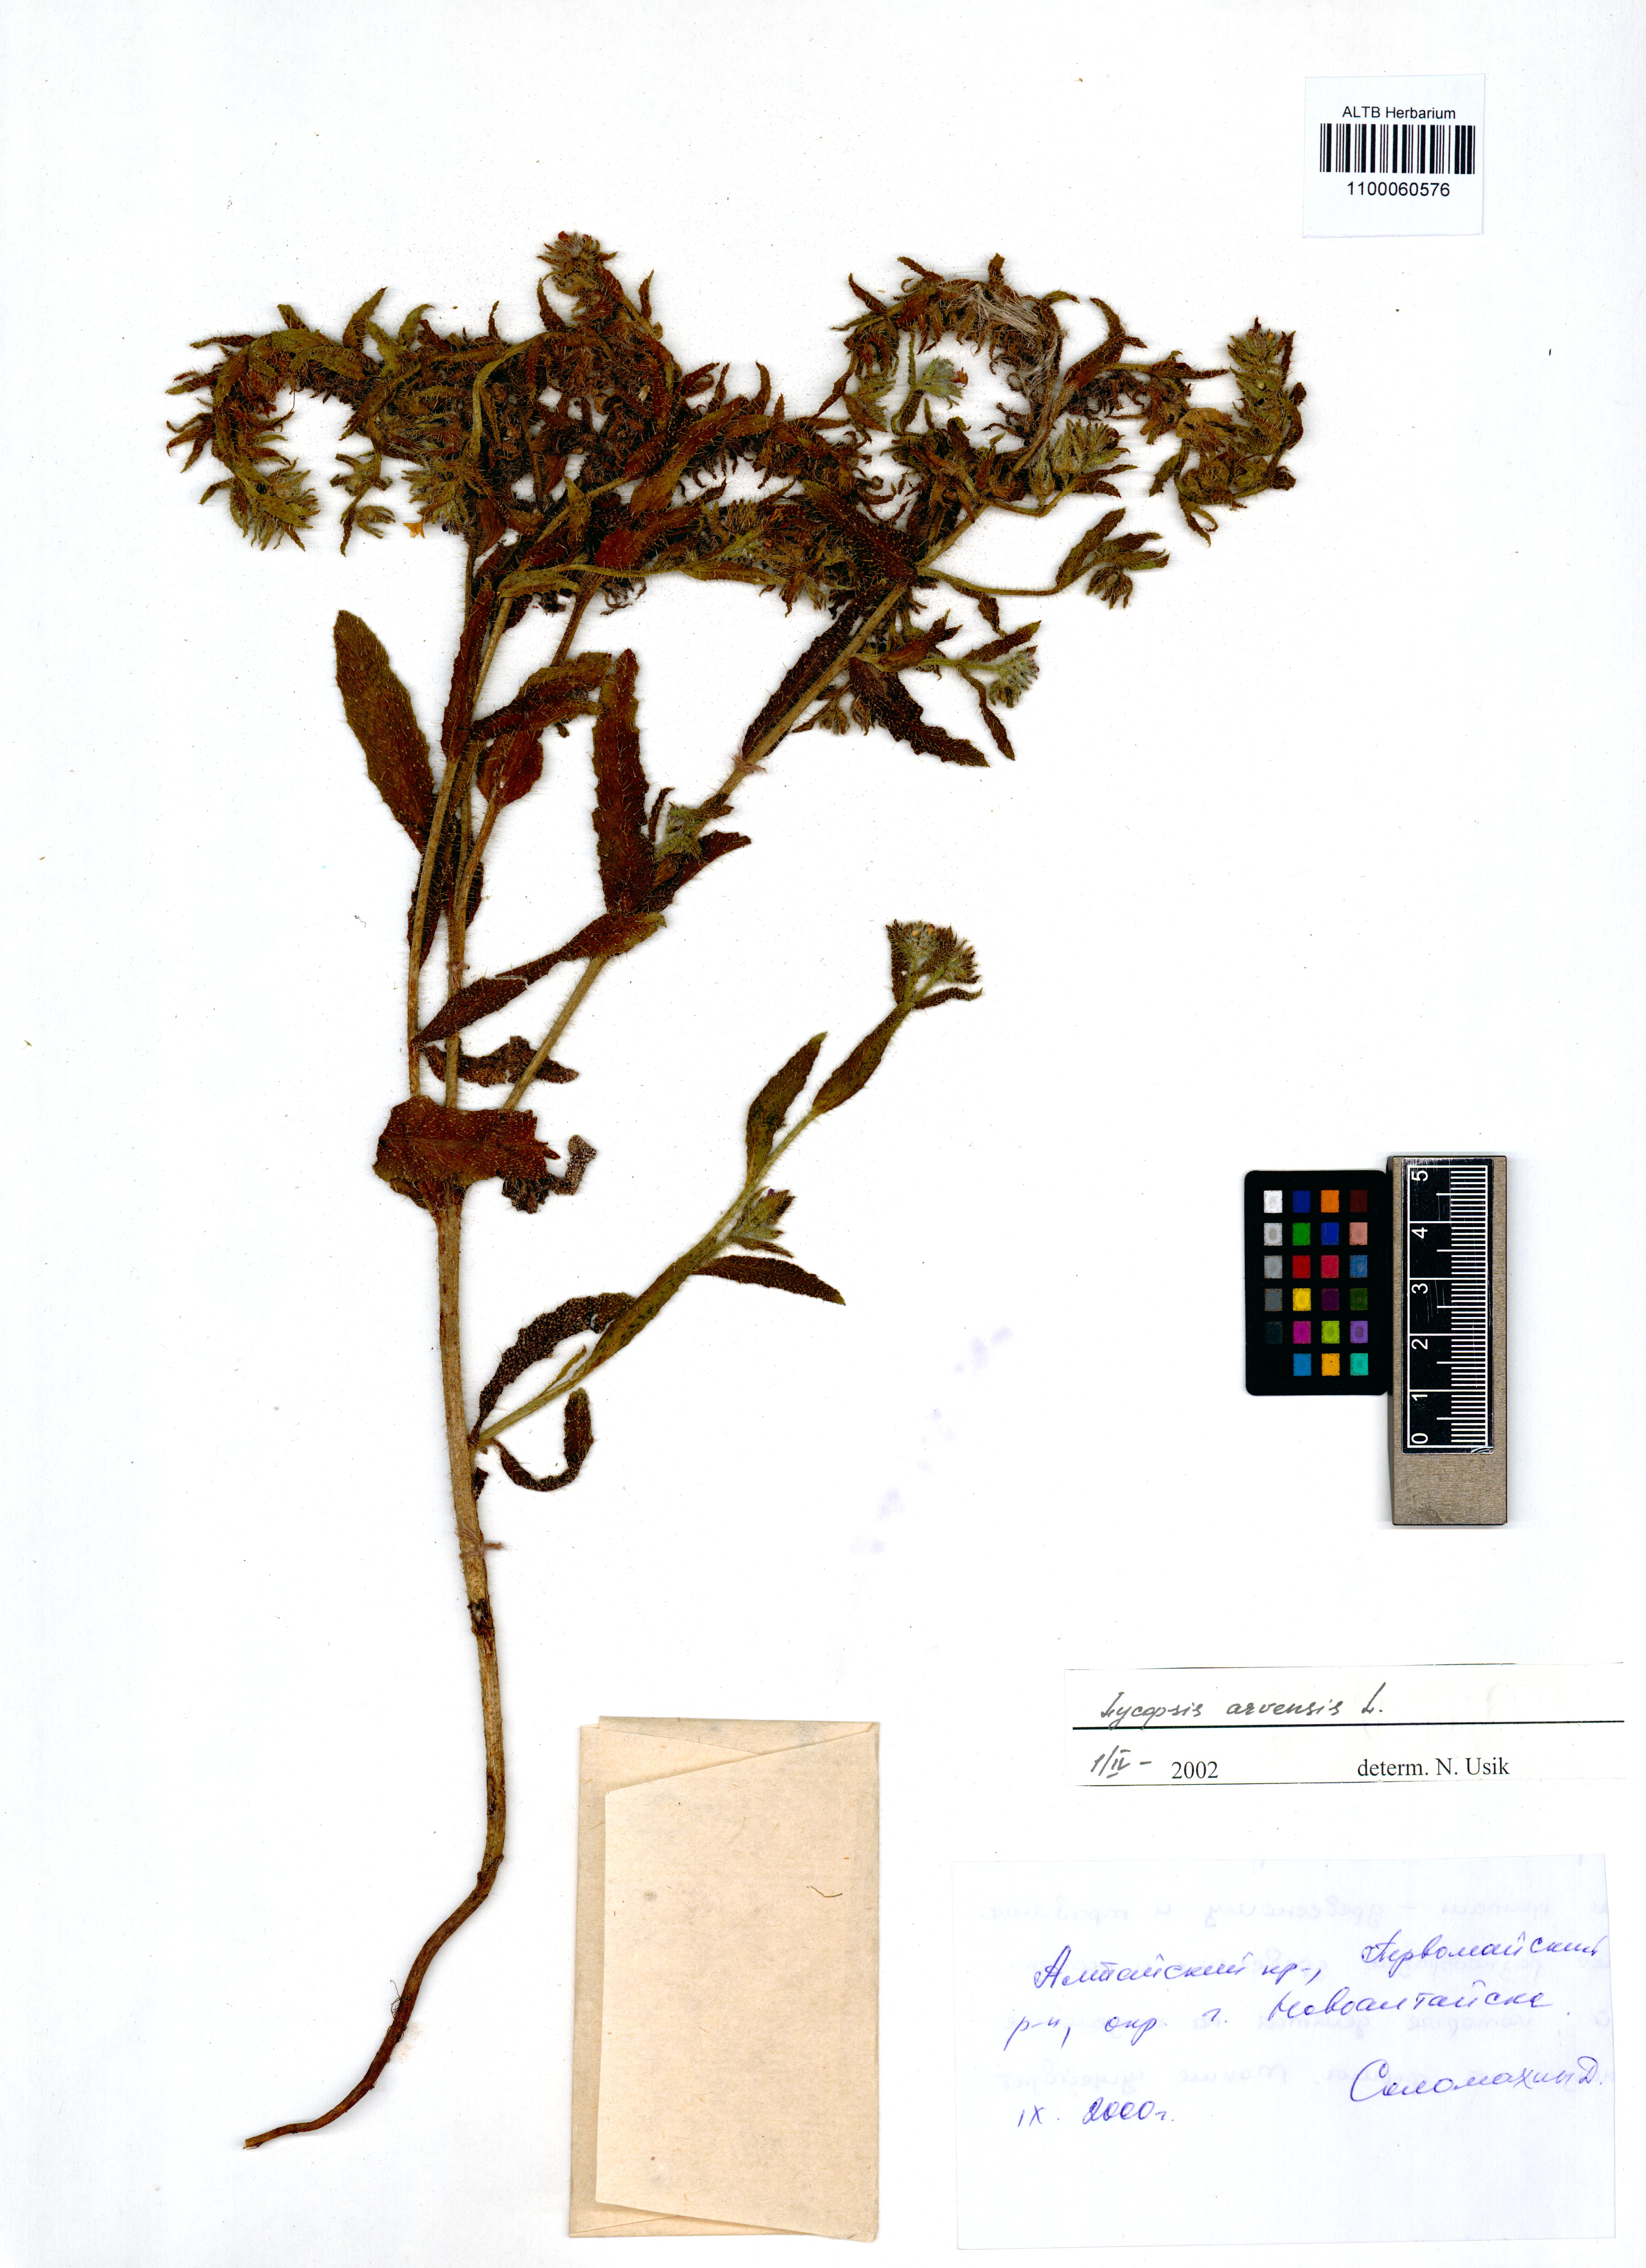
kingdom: Plantae
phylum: Tracheophyta
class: Magnoliopsida
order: Boraginales
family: Boraginaceae
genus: Lycopsis
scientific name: Lycopsis arvensis
